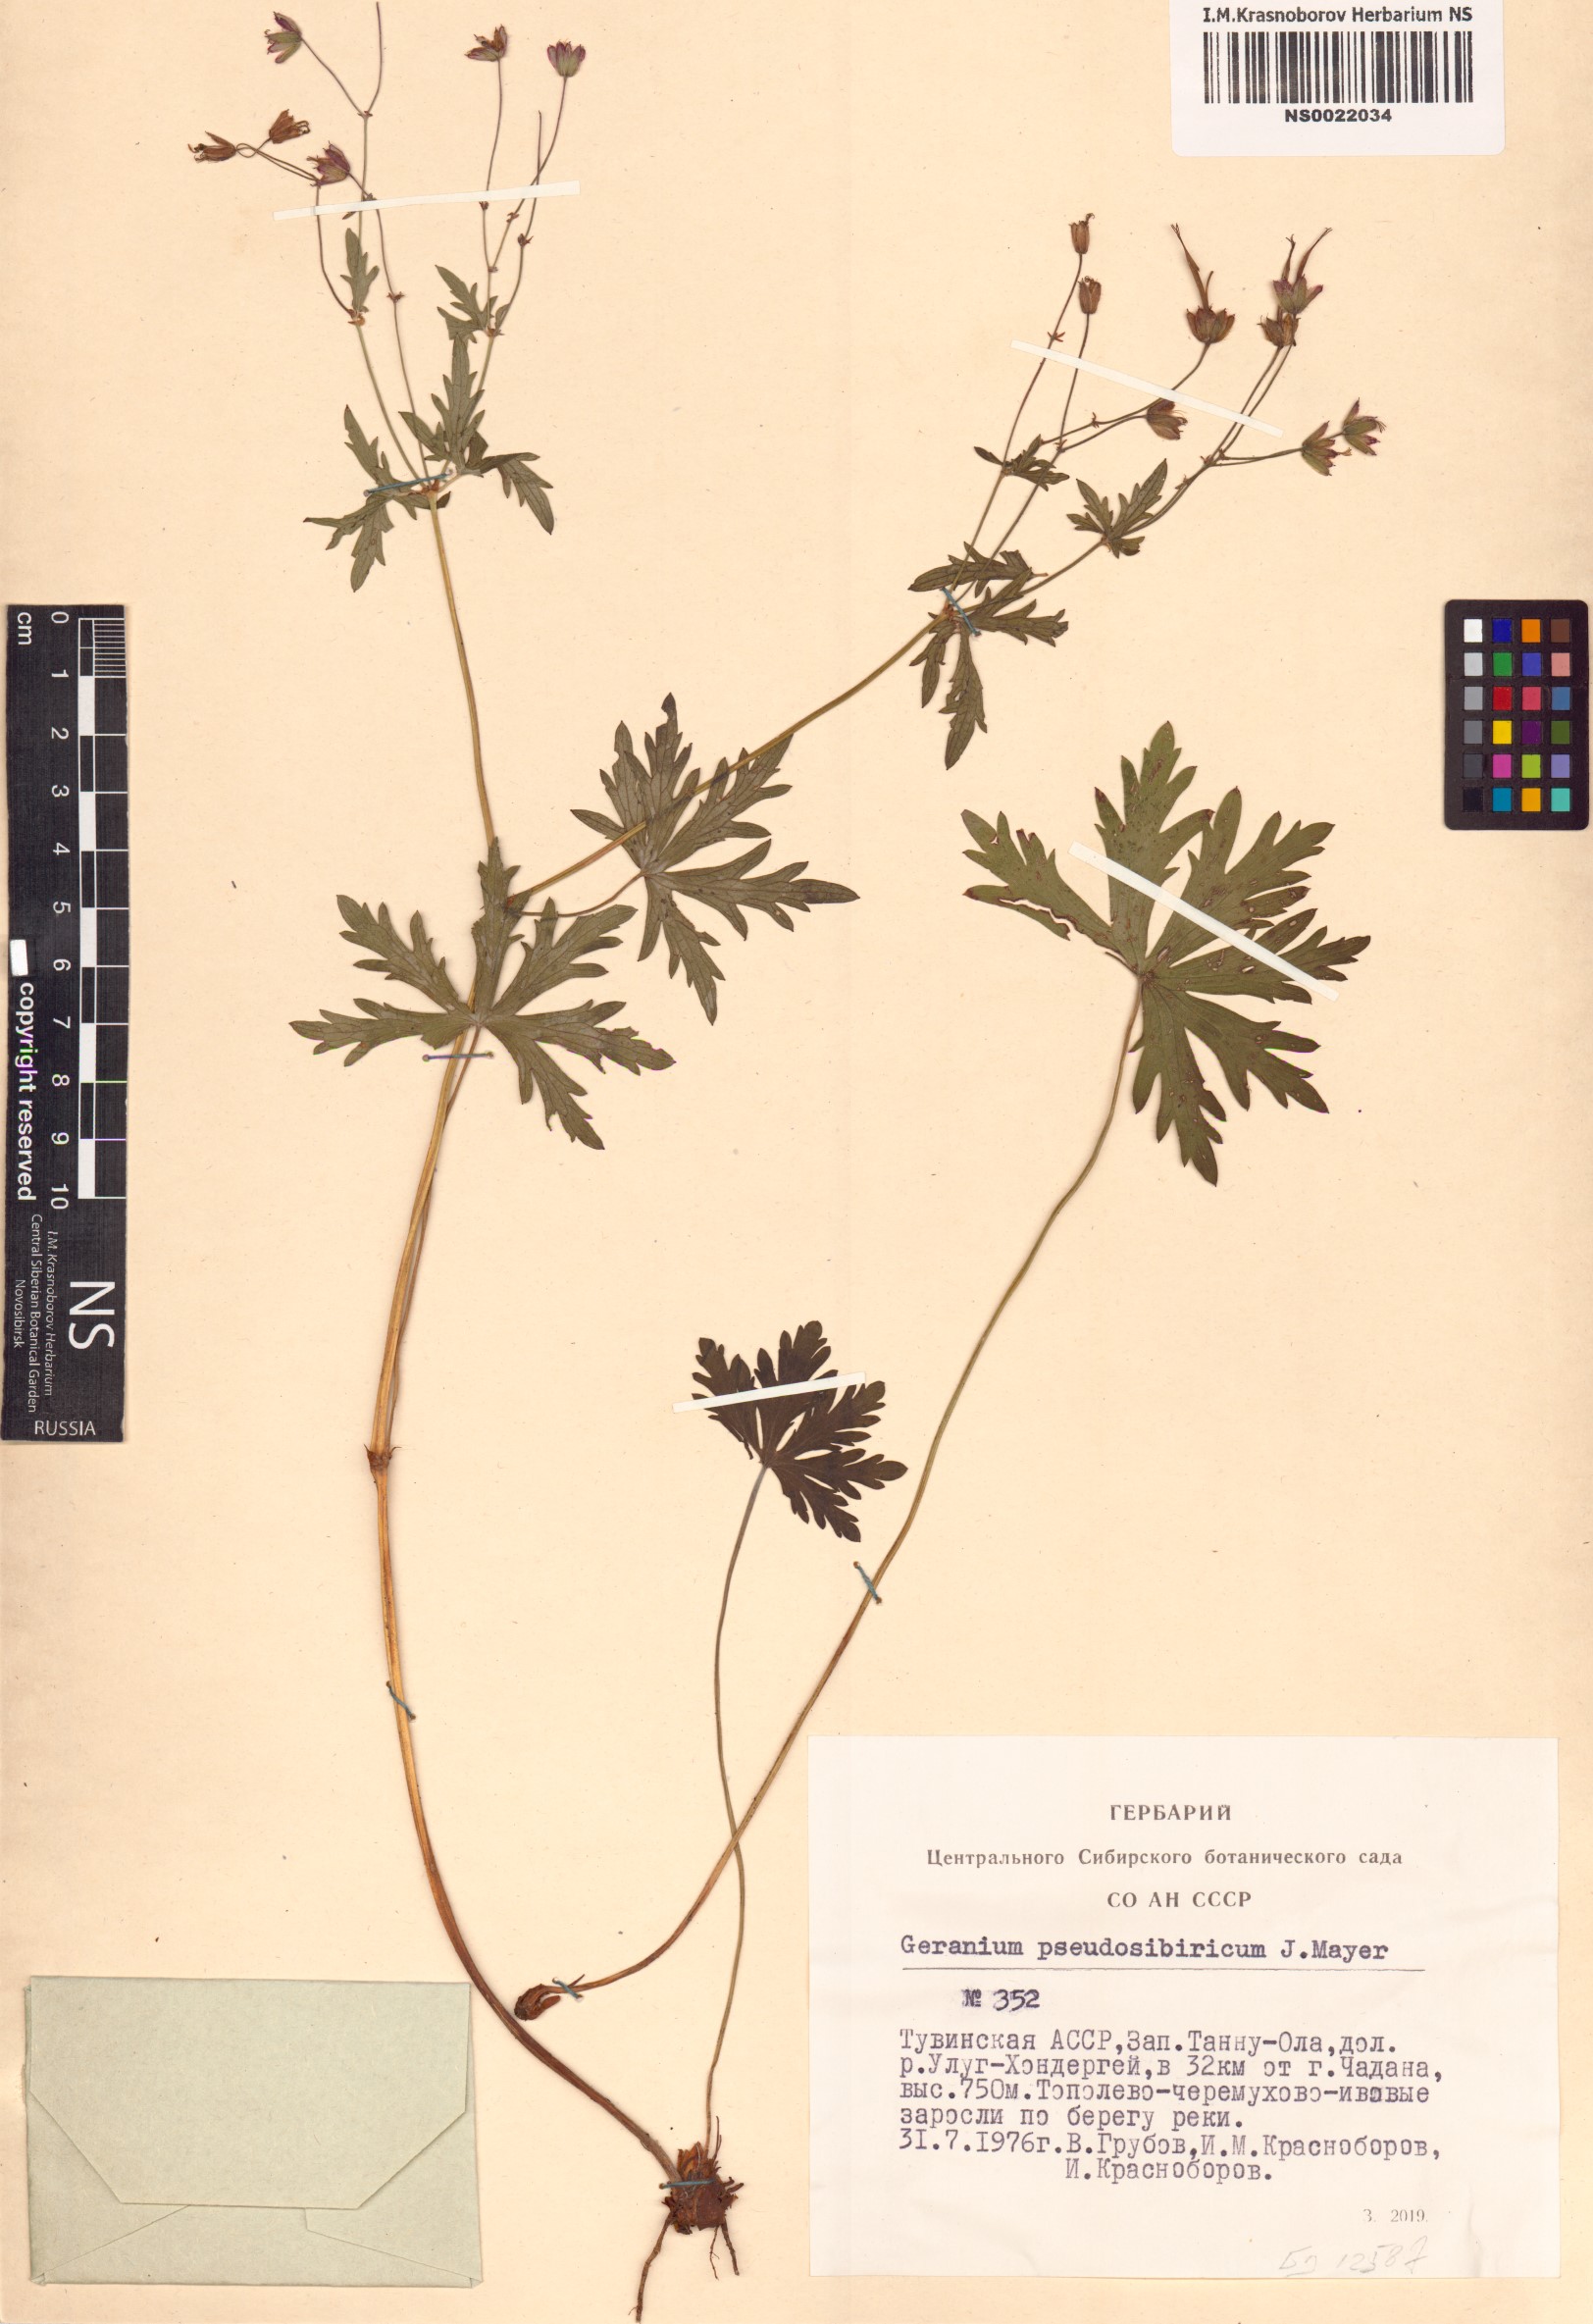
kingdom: Plantae
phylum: Tracheophyta
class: Magnoliopsida
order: Geraniales
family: Geraniaceae
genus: Geranium
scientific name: Geranium pseudosibiricum
